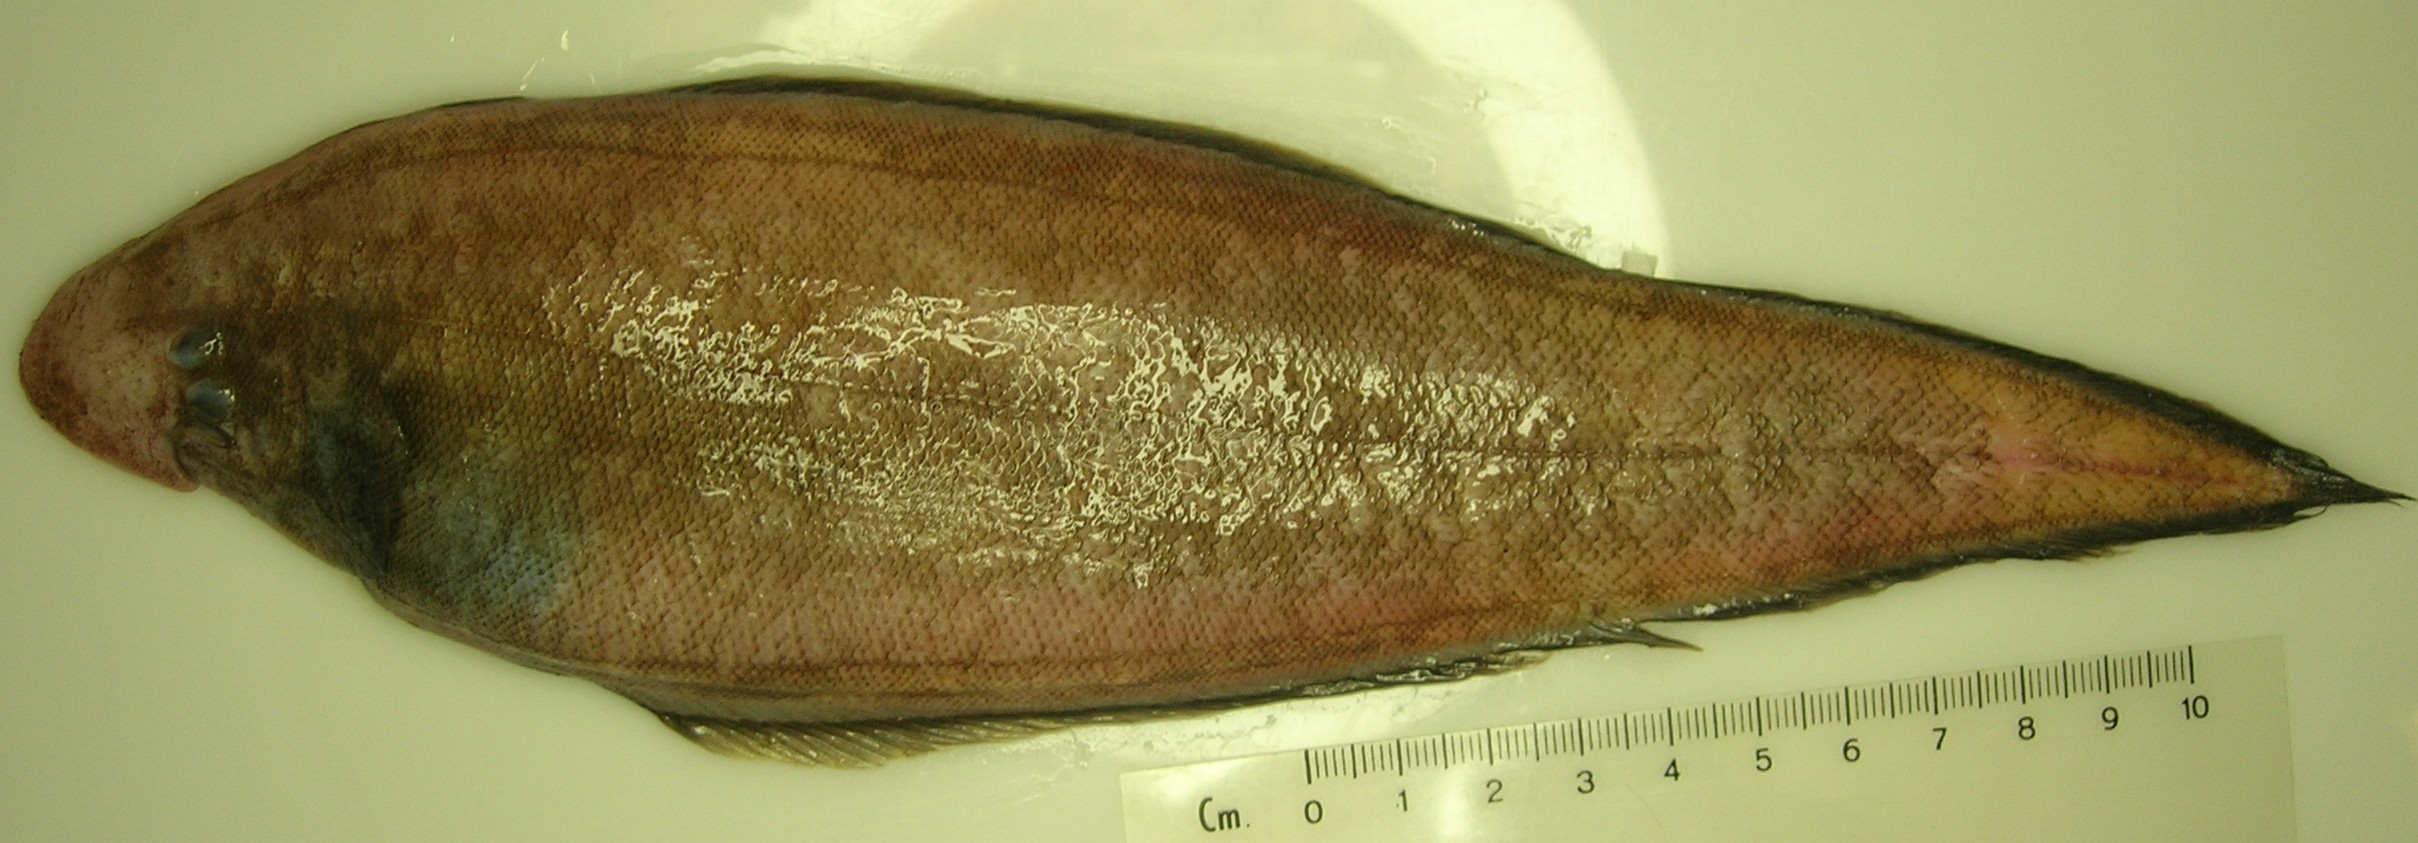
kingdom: Animalia
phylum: Chordata
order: Pleuronectiformes
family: Cynoglossidae
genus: Cynoglossus
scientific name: Cynoglossus marleyi
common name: Threeline tonguesole
